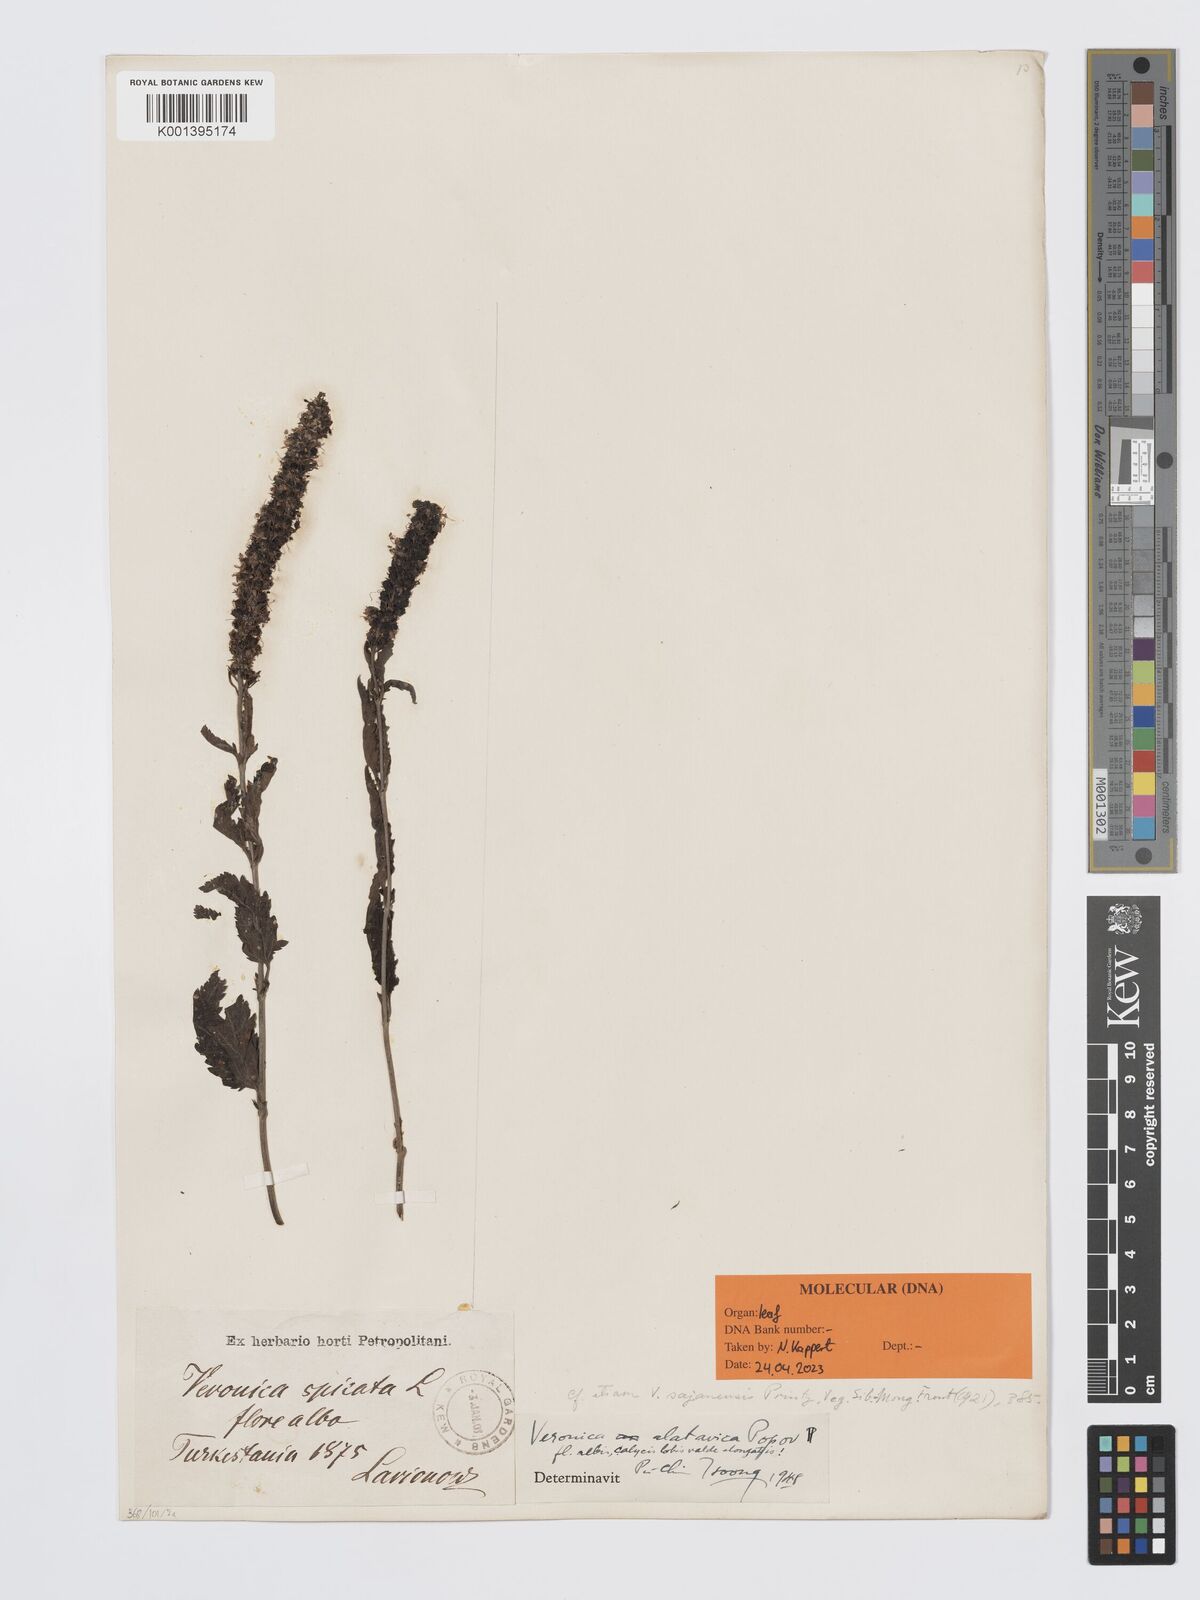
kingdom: Plantae
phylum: Tracheophyta
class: Magnoliopsida
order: Lamiales
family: Plantaginaceae
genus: Veronica
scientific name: Veronica alatavica
